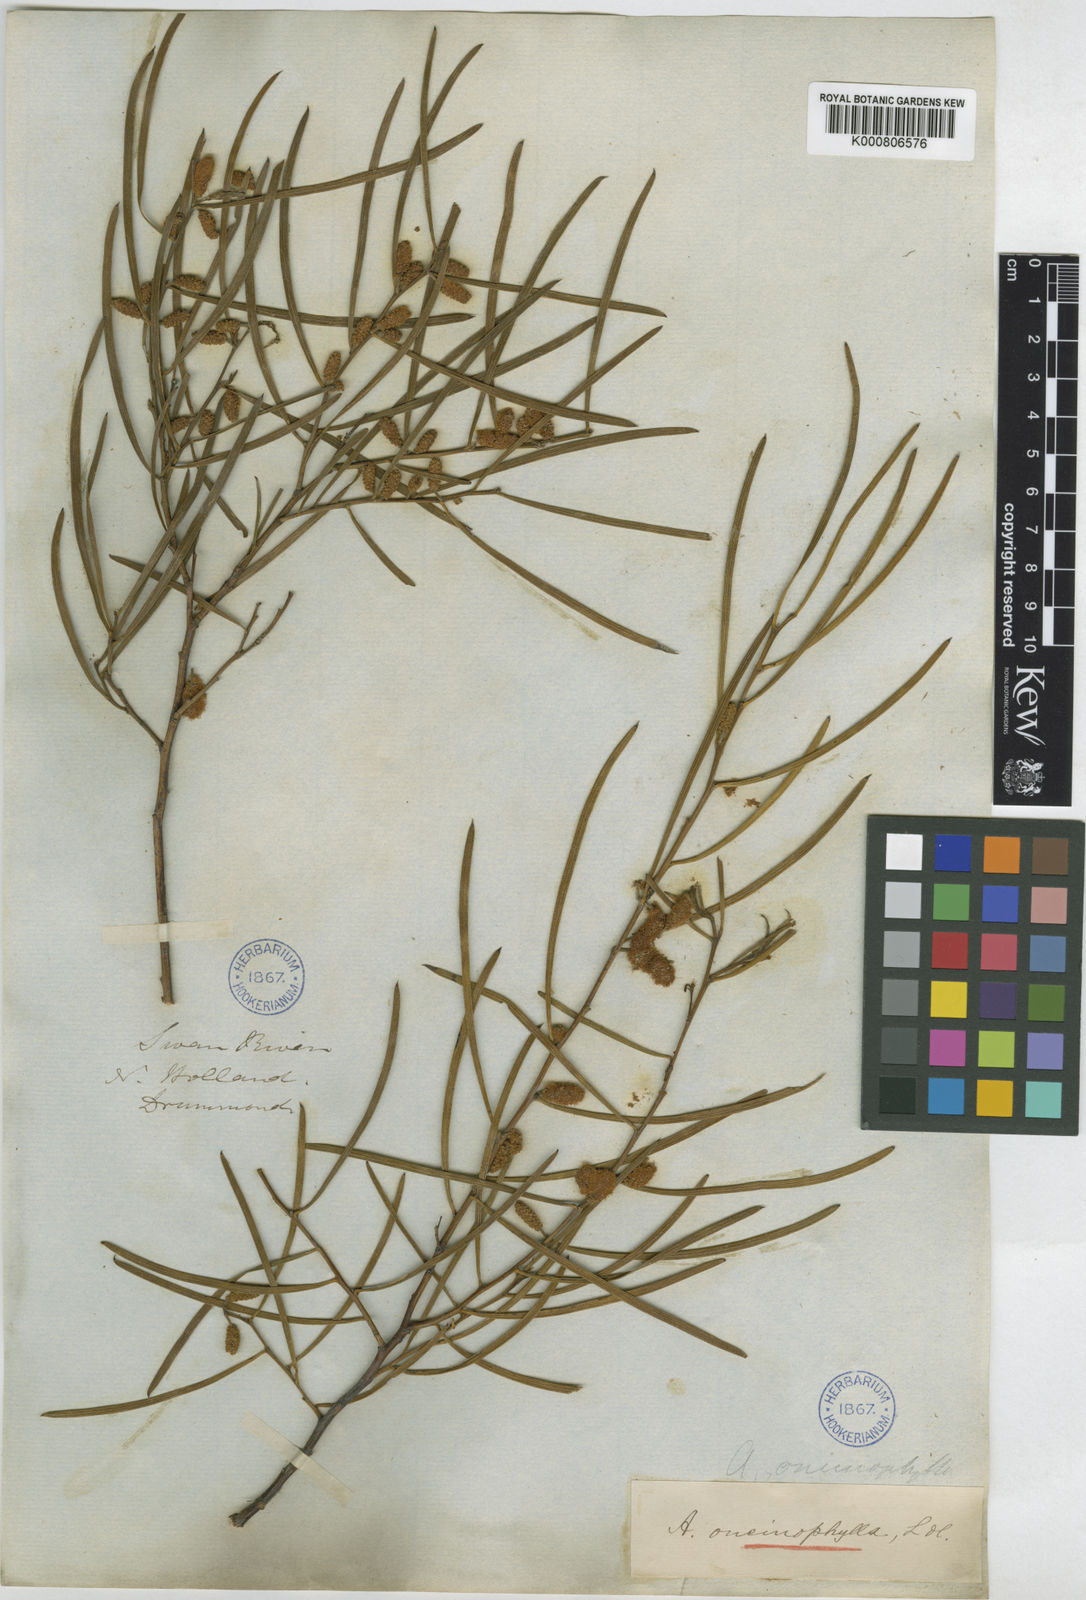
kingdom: Plantae
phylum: Tracheophyta
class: Magnoliopsida
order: Fabales
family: Fabaceae
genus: Acacia
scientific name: Acacia oncinophylla
